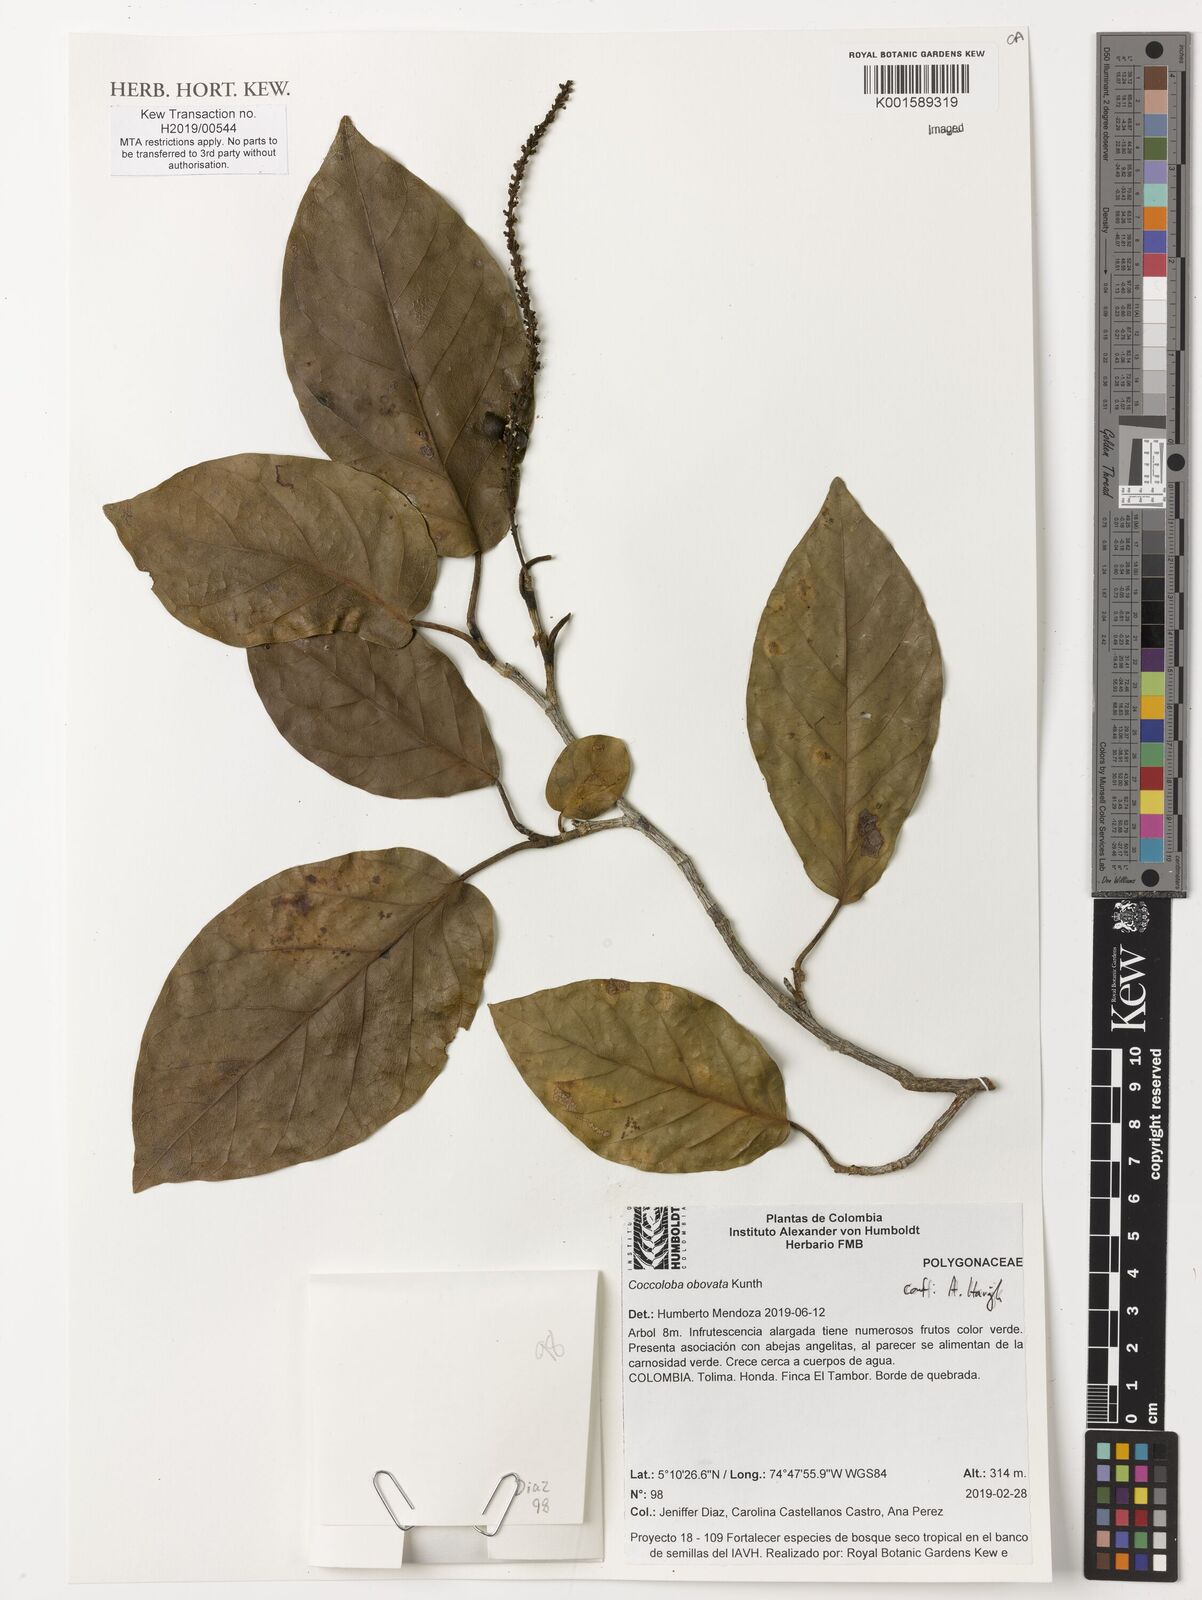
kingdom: Plantae
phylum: Tracheophyta
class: Magnoliopsida
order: Caryophyllales
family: Polygonaceae
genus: Coccoloba
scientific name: Coccoloba obovata
